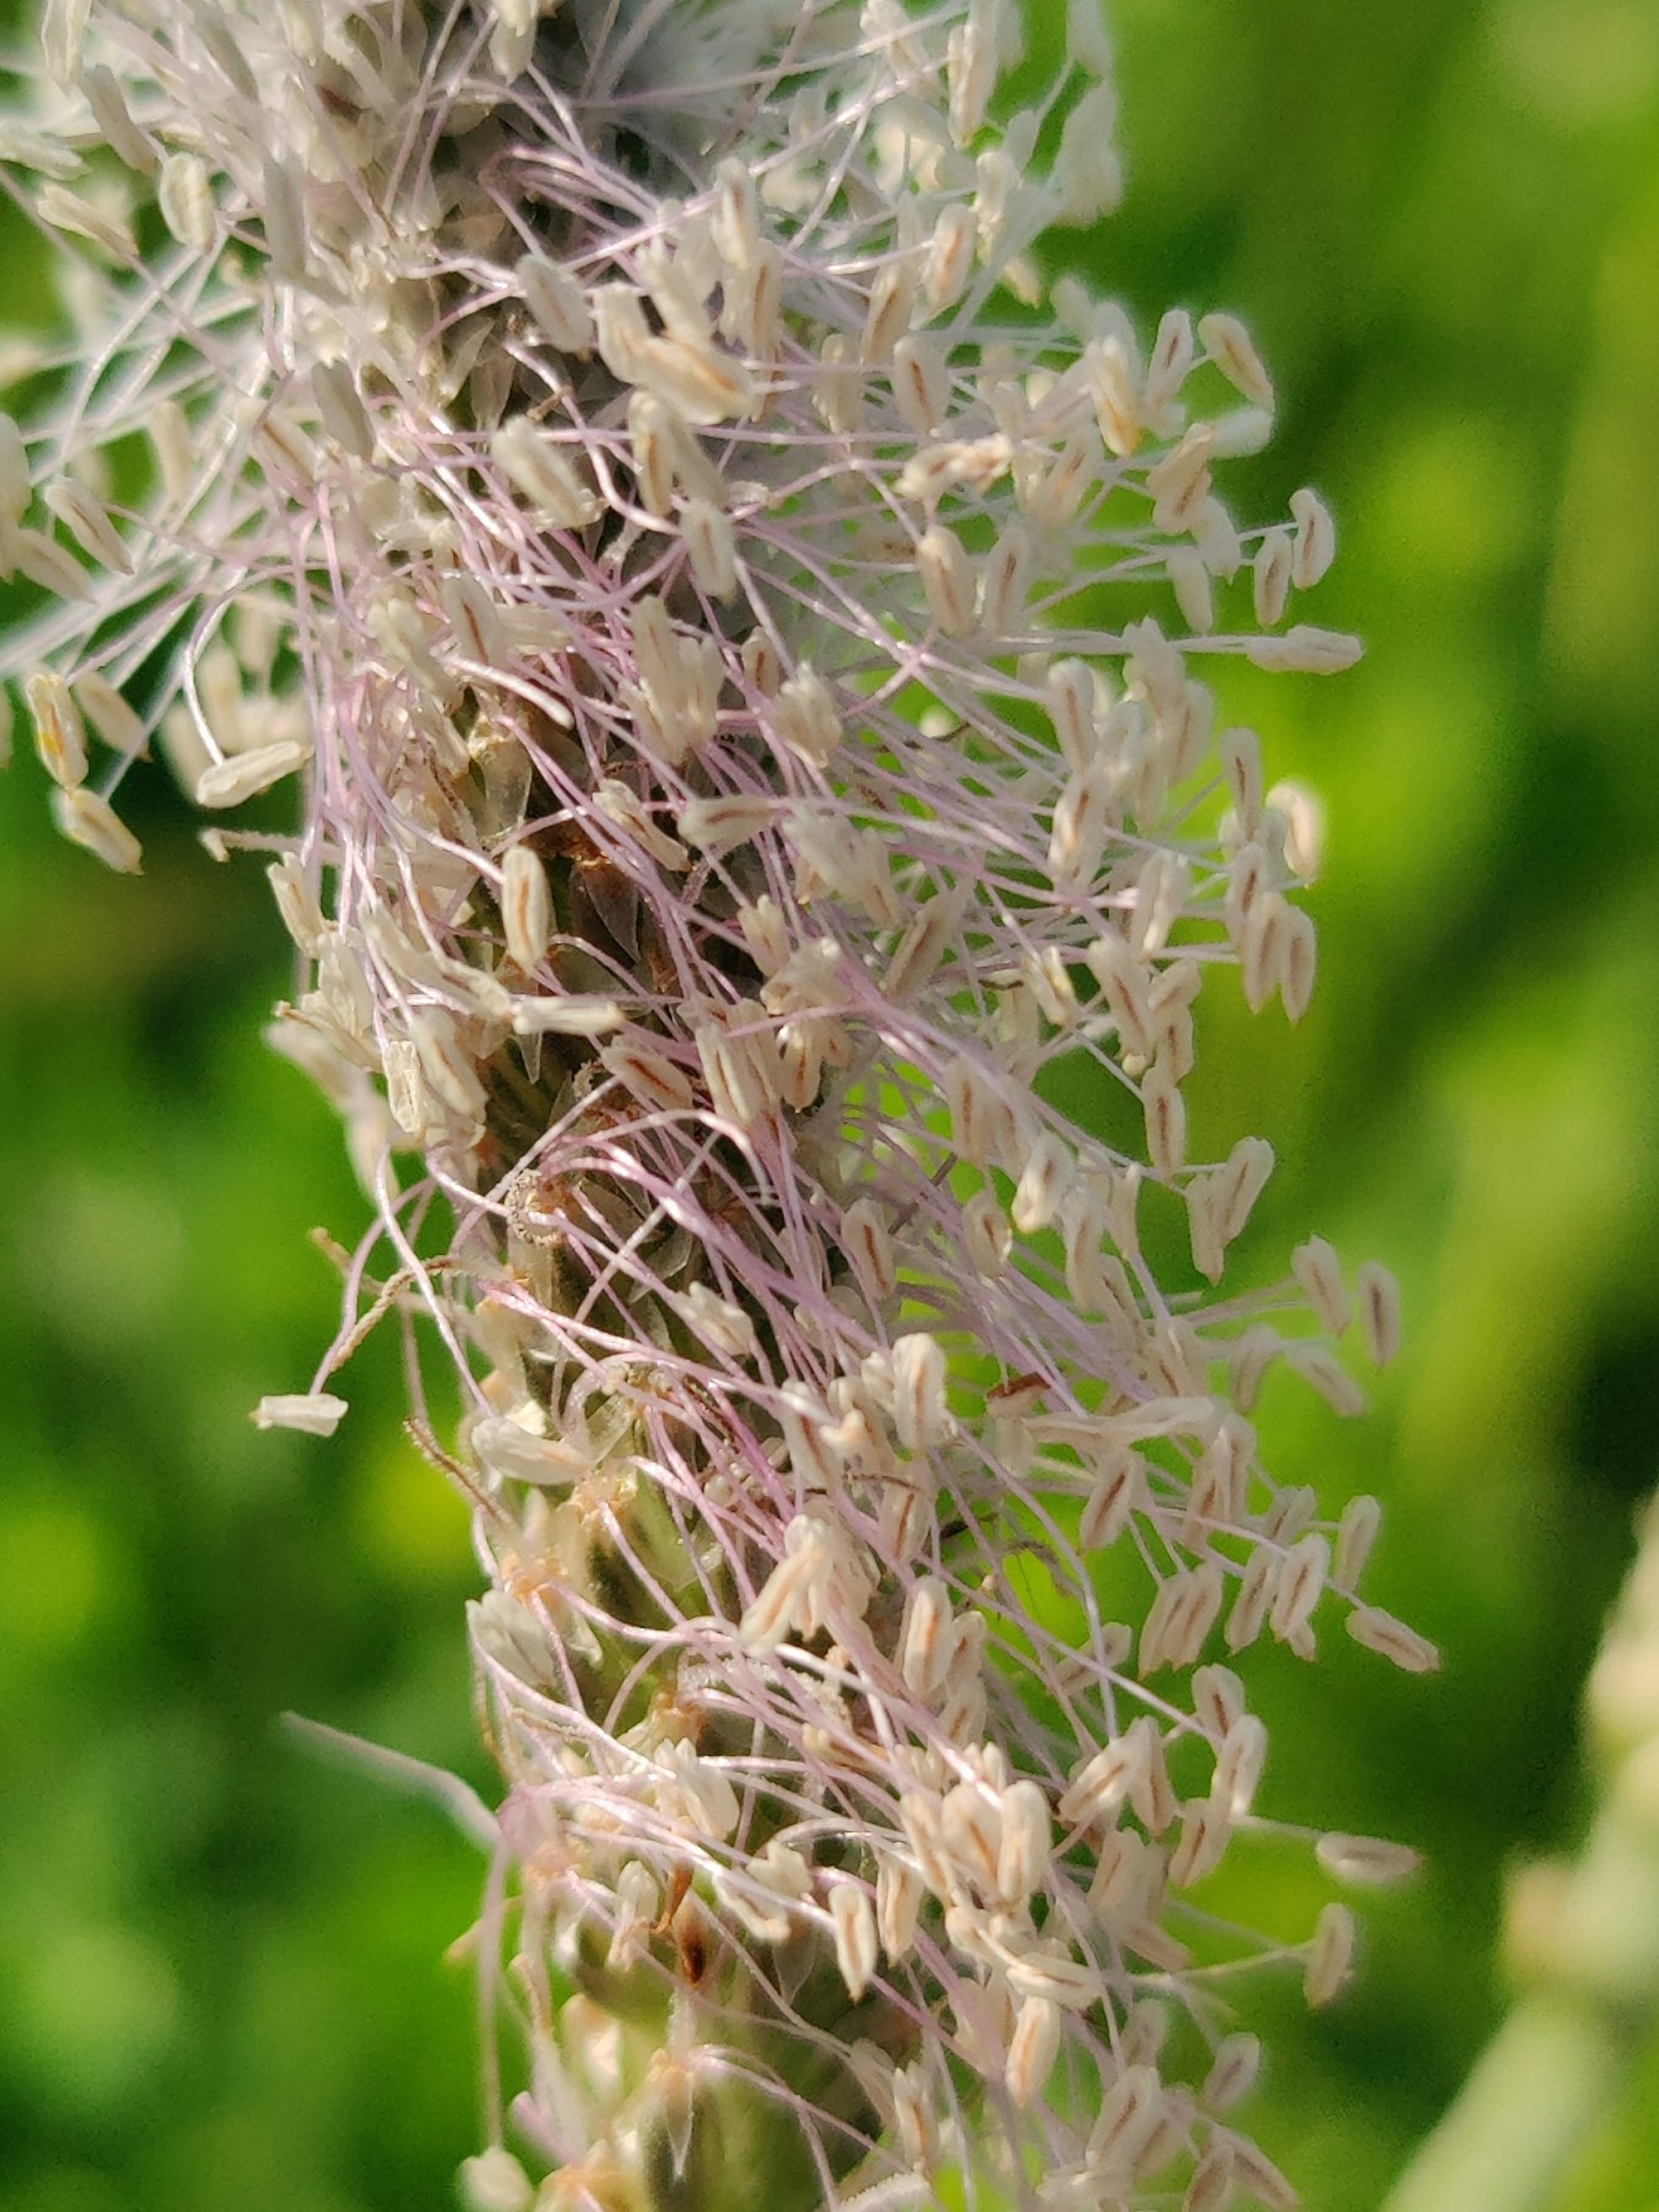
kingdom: Plantae
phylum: Tracheophyta
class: Magnoliopsida
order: Lamiales
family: Plantaginaceae
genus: Plantago
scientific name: Plantago media
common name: Dunet vejbred
